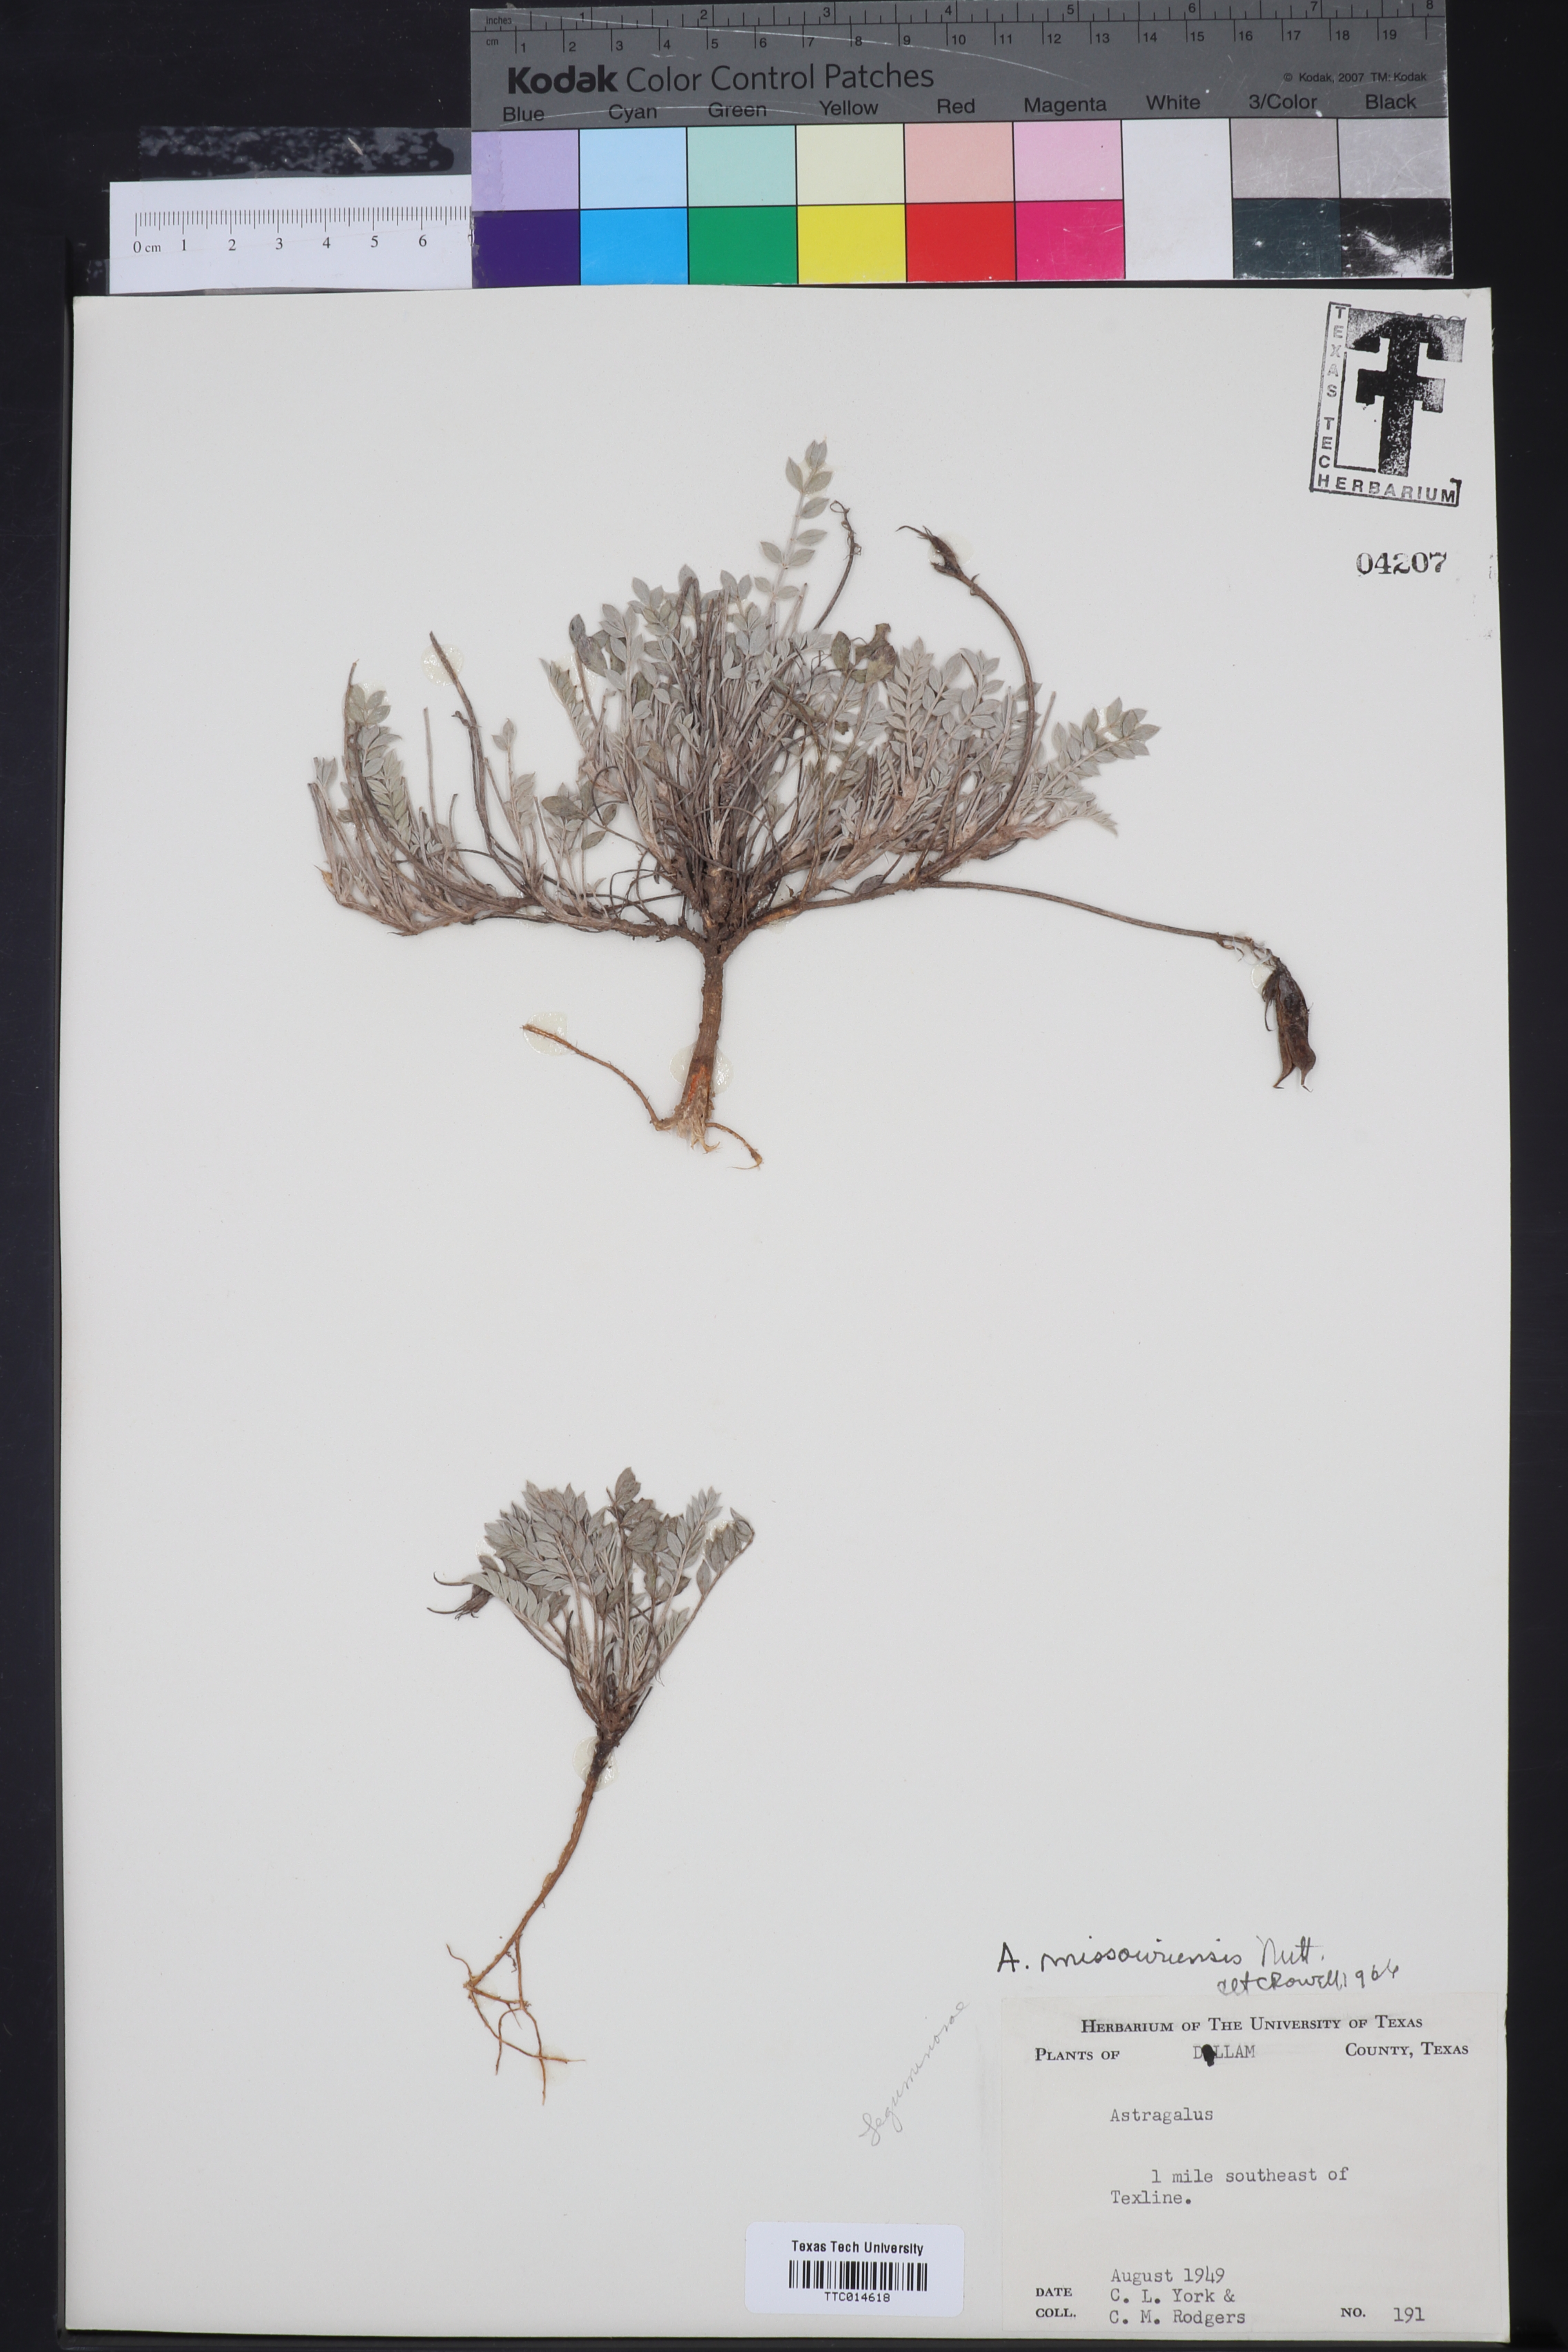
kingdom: Plantae
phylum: Tracheophyta
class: Magnoliopsida
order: Fabales
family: Fabaceae
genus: Astragalus
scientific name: Astragalus missouriensis
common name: Missouri milk-vetch
